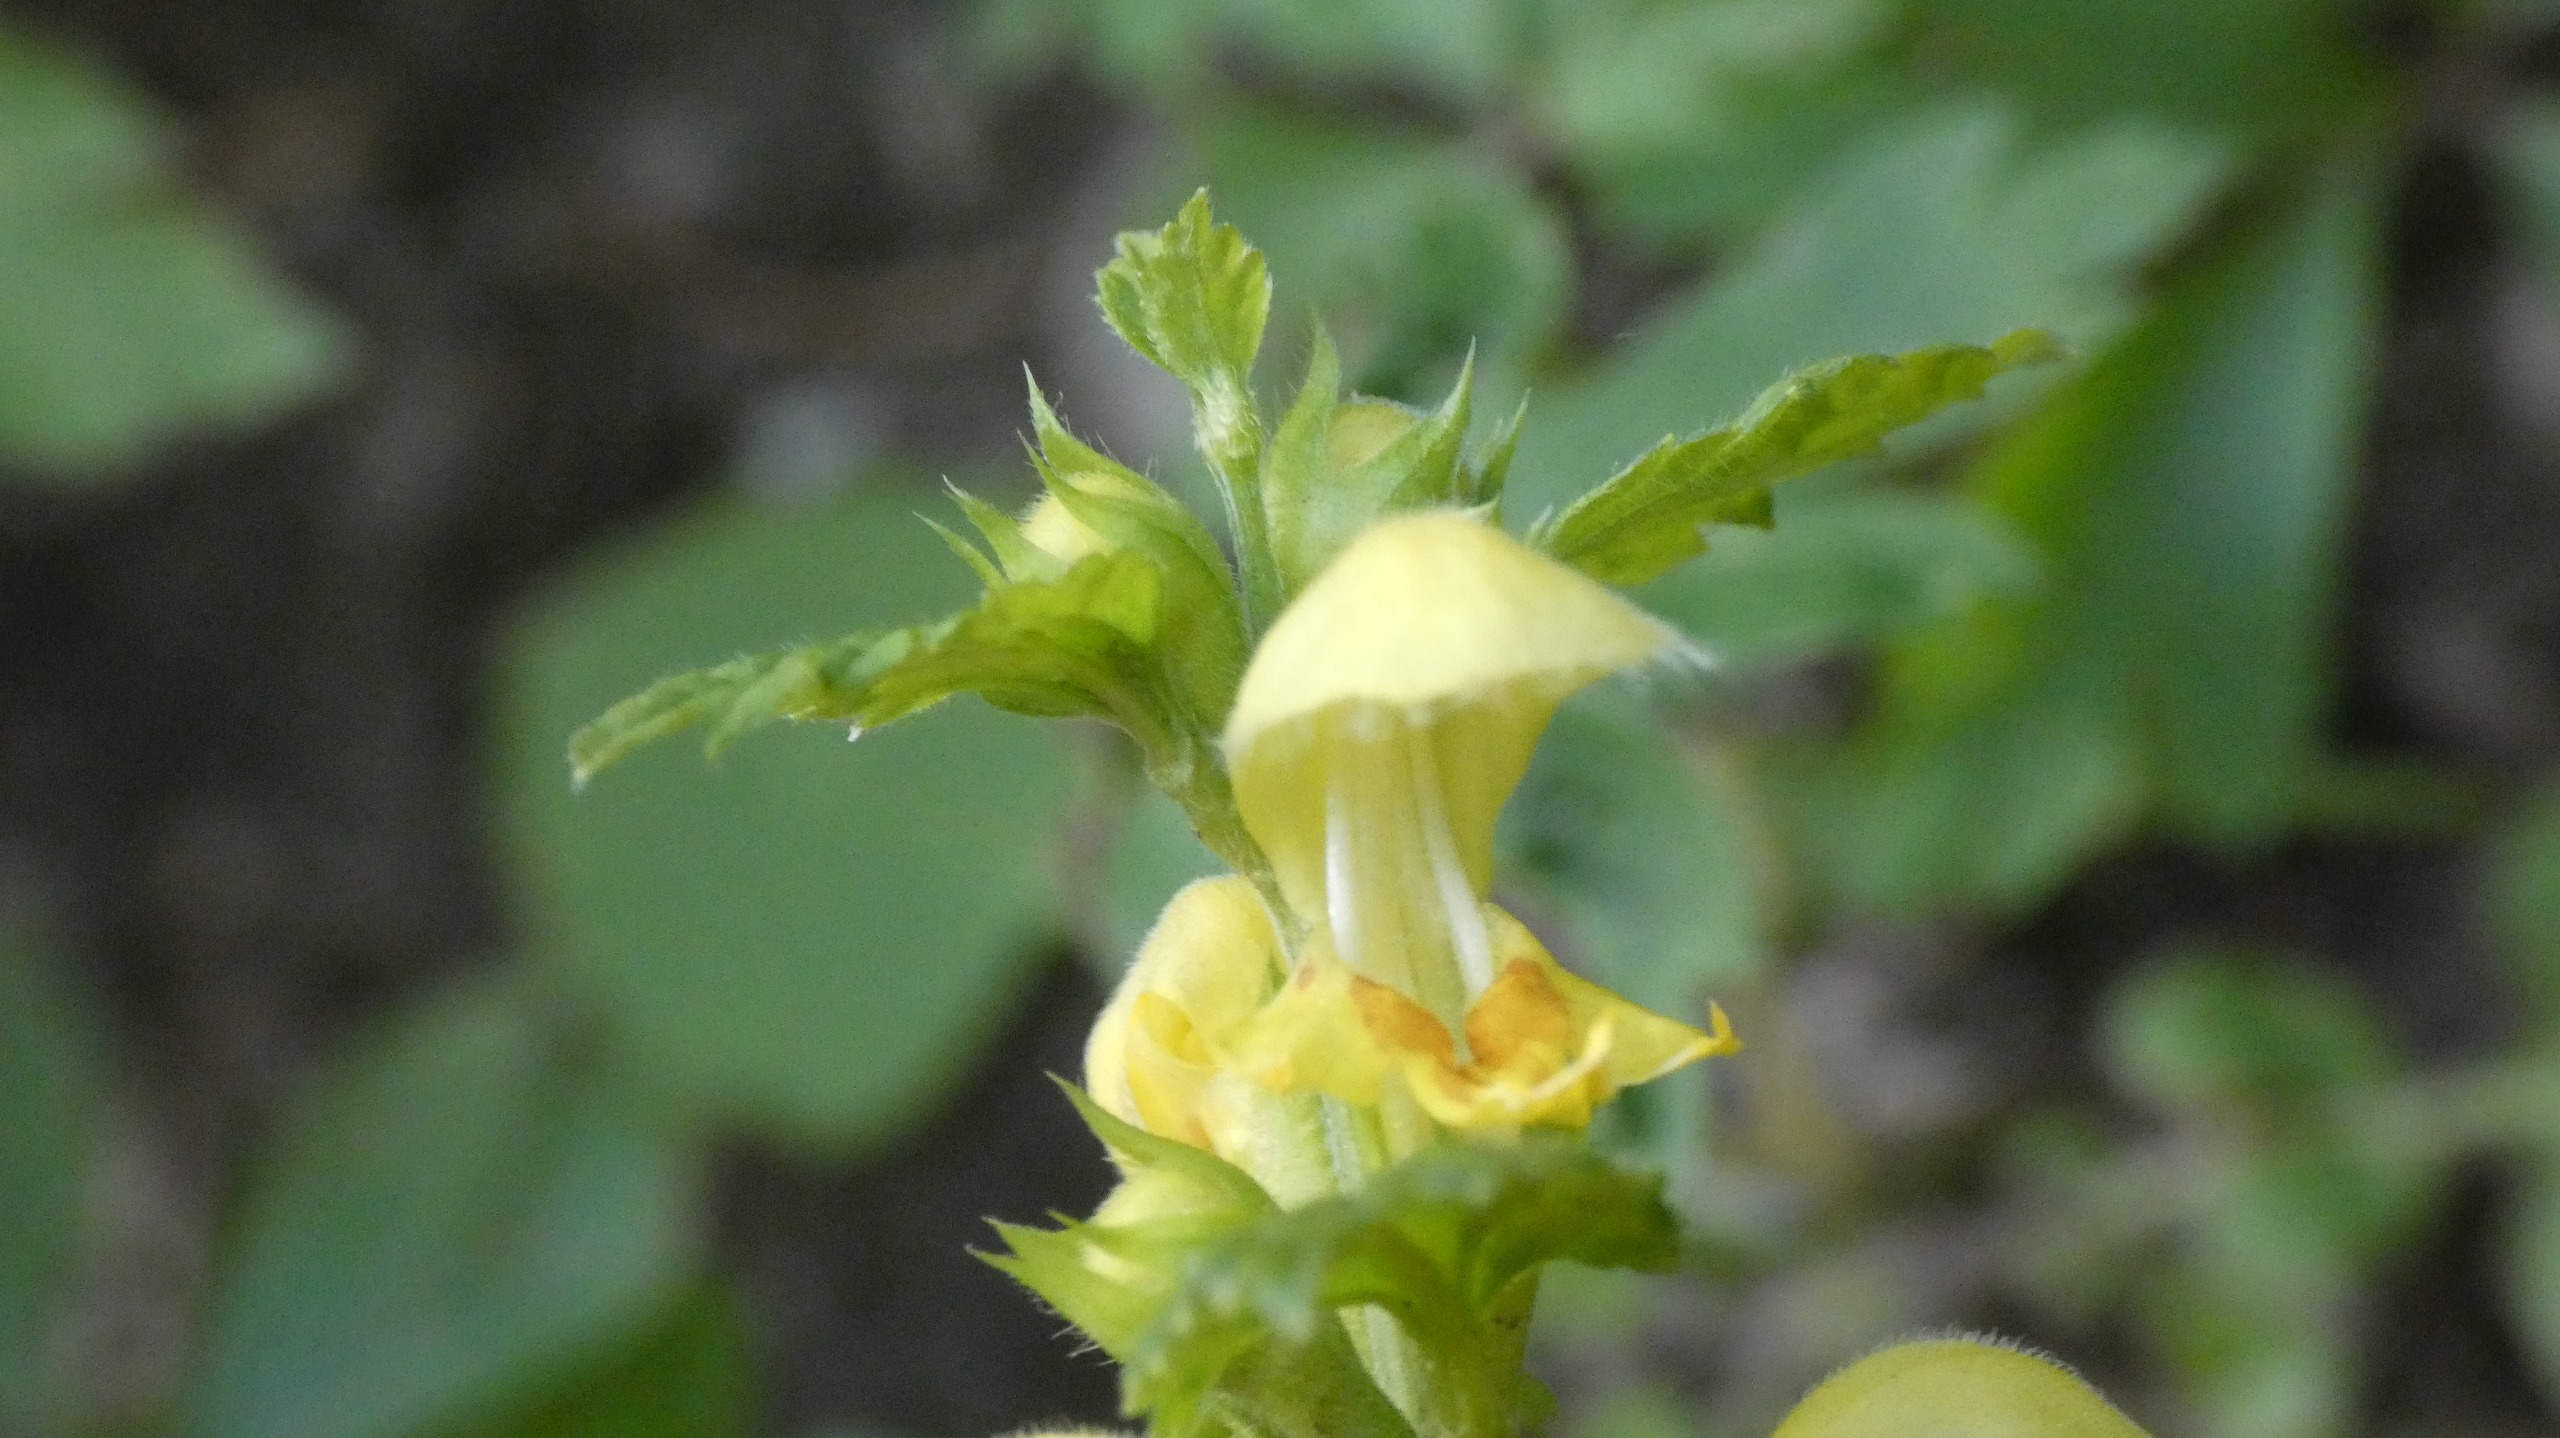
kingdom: Plantae
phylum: Tracheophyta
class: Magnoliopsida
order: Lamiales
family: Lamiaceae
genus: Lamium
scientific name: Lamium galeobdolon
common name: Guldnælde
